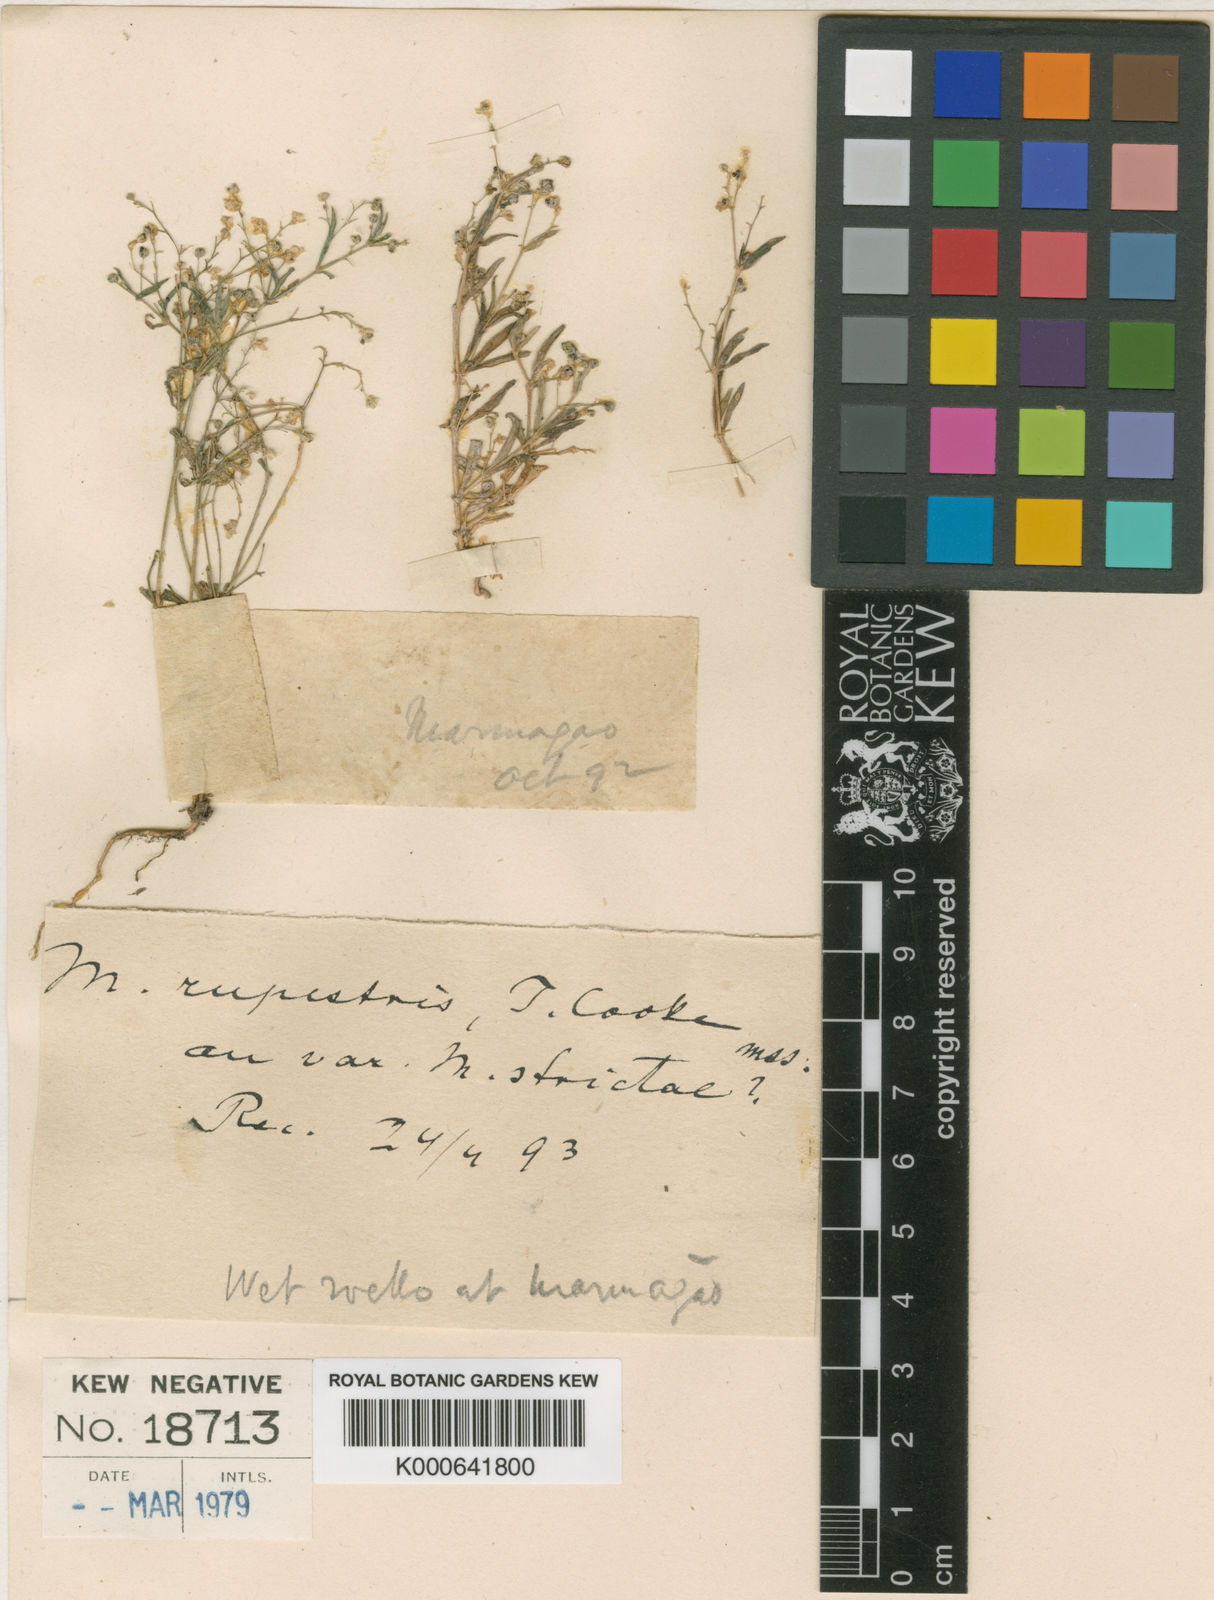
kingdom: Plantae
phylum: Tracheophyta
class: Magnoliopsida
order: Caryophyllales
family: Molluginaceae
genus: Mollugo
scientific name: Mollugo
